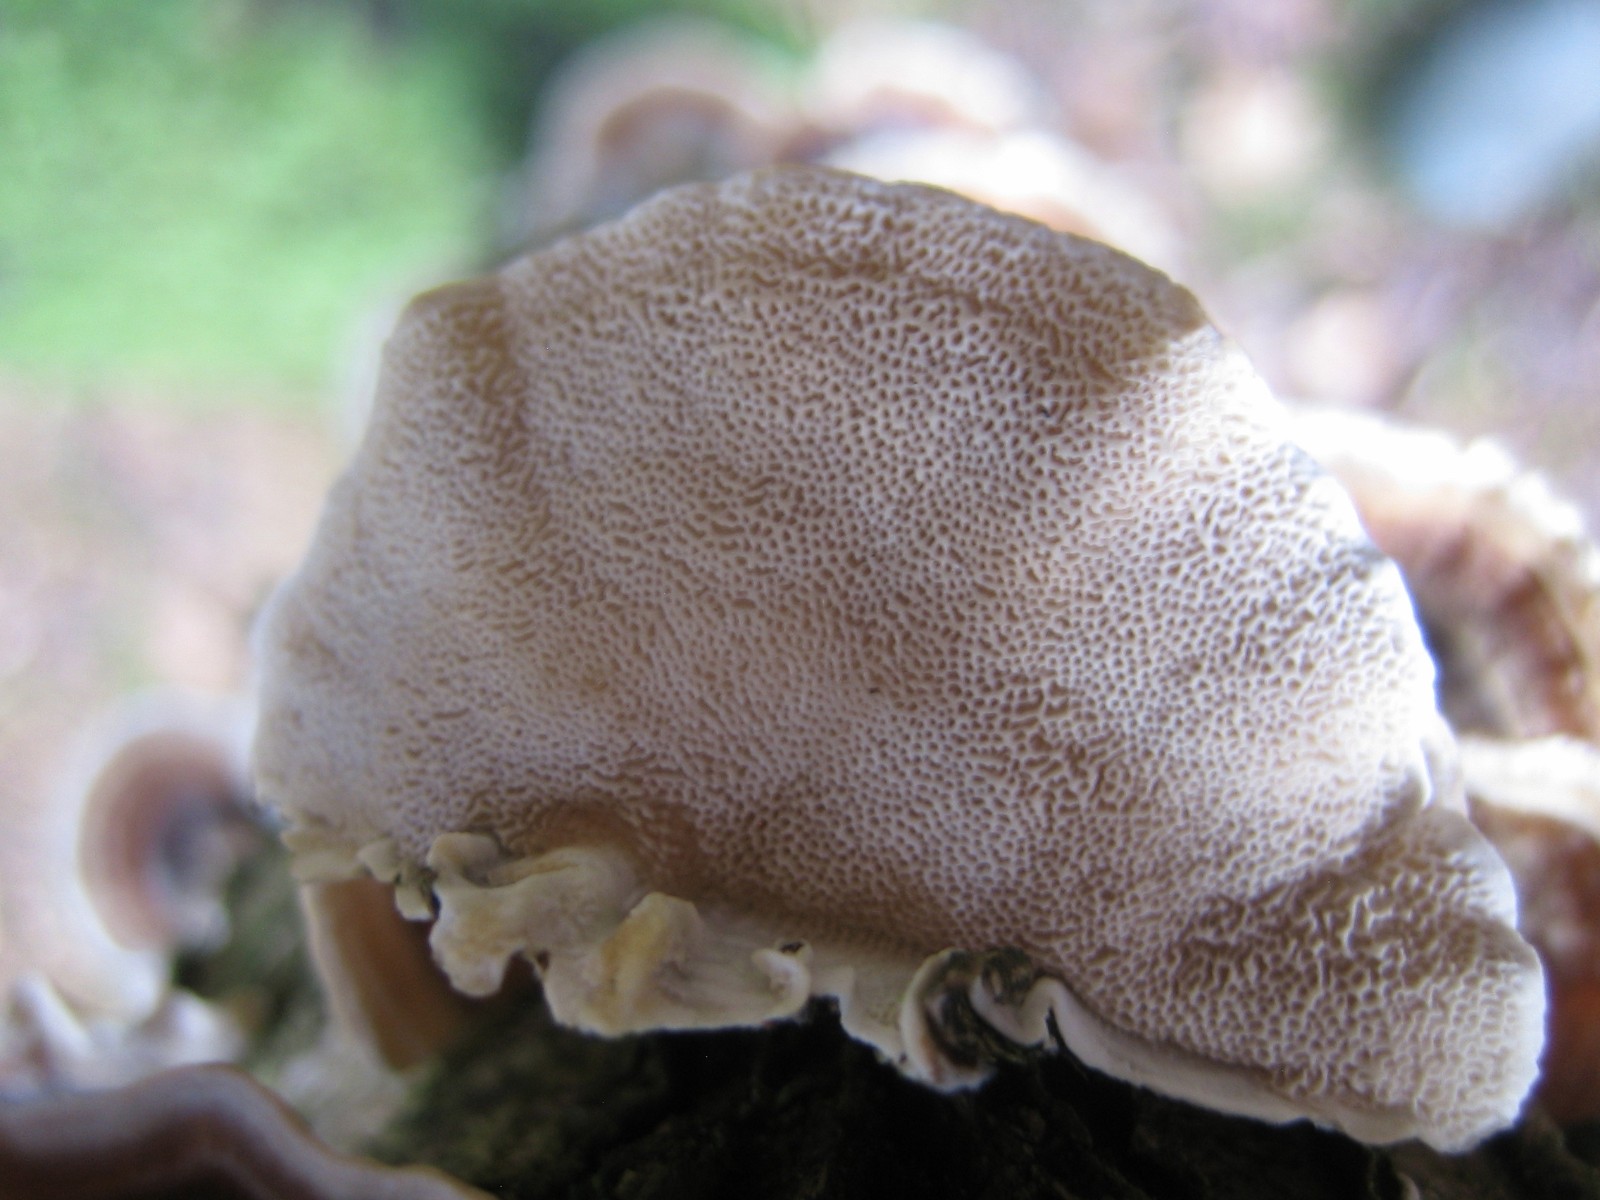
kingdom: Fungi
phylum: Basidiomycota
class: Agaricomycetes
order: Polyporales
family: Polyporaceae
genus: Trametes
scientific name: Trametes versicolor
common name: broget læderporesvamp
